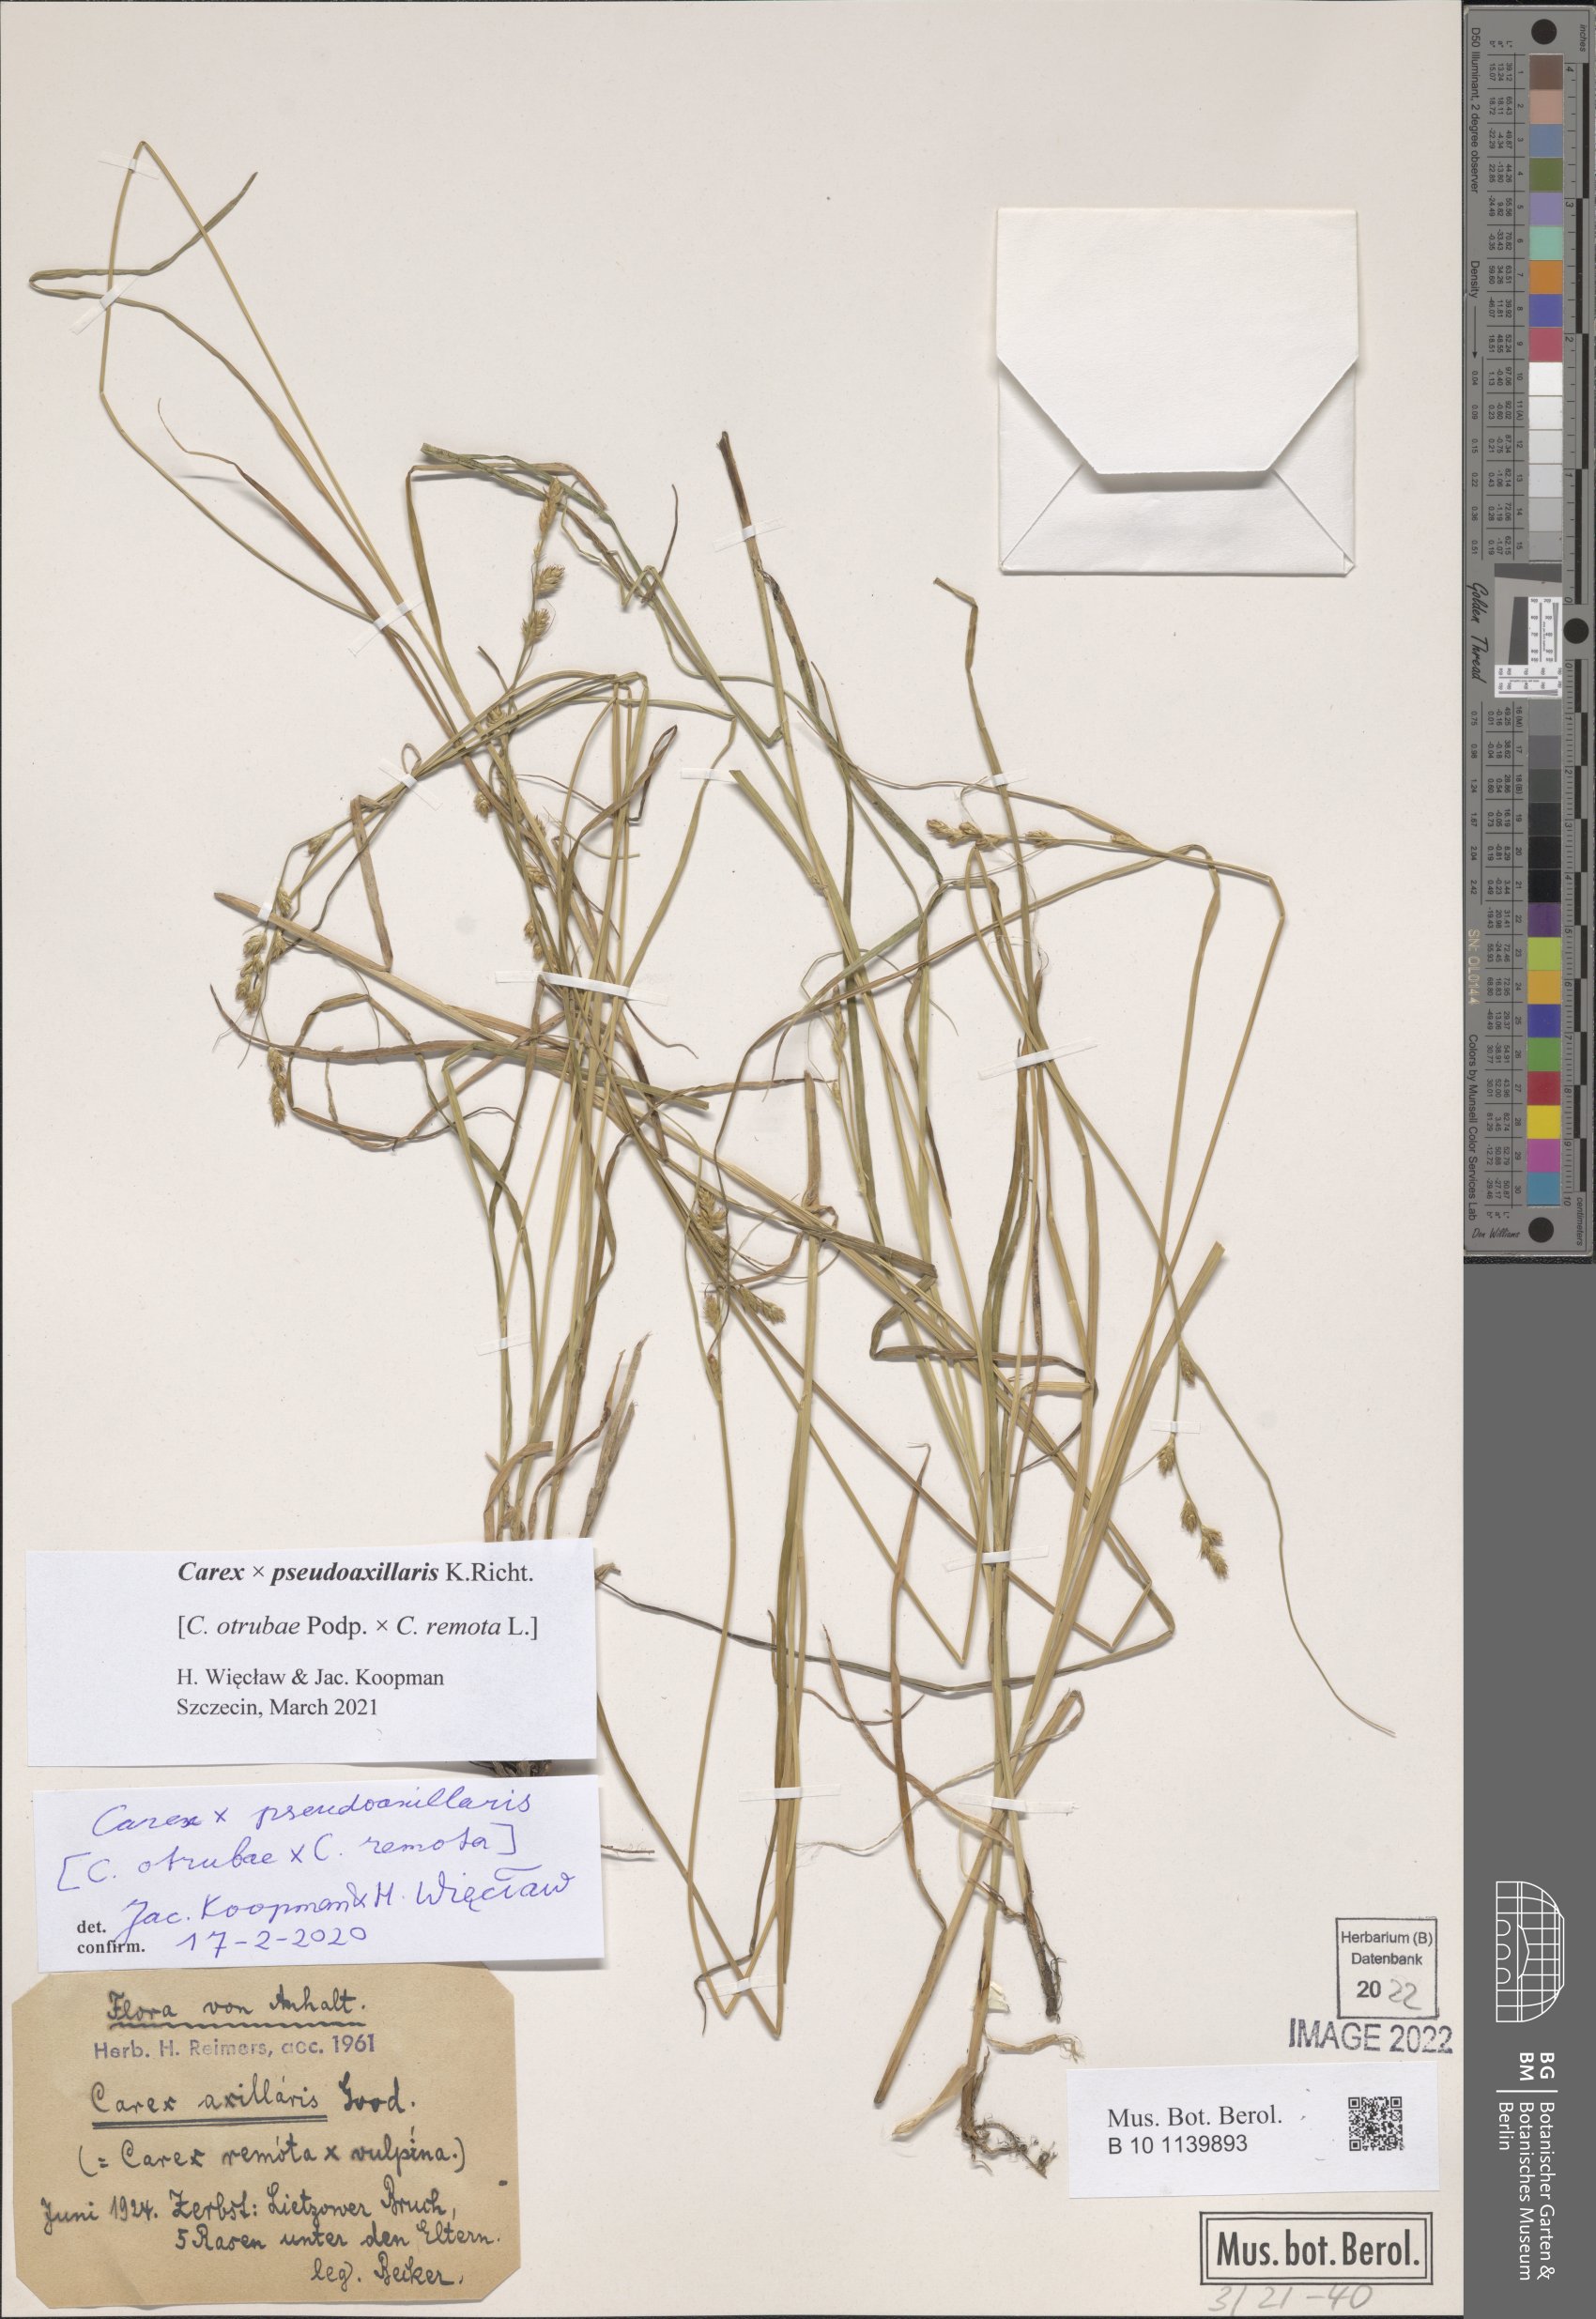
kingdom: Plantae
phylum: Tracheophyta
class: Liliopsida
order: Poales
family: Cyperaceae
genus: Carex
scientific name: Carex pseudoaxillaris
